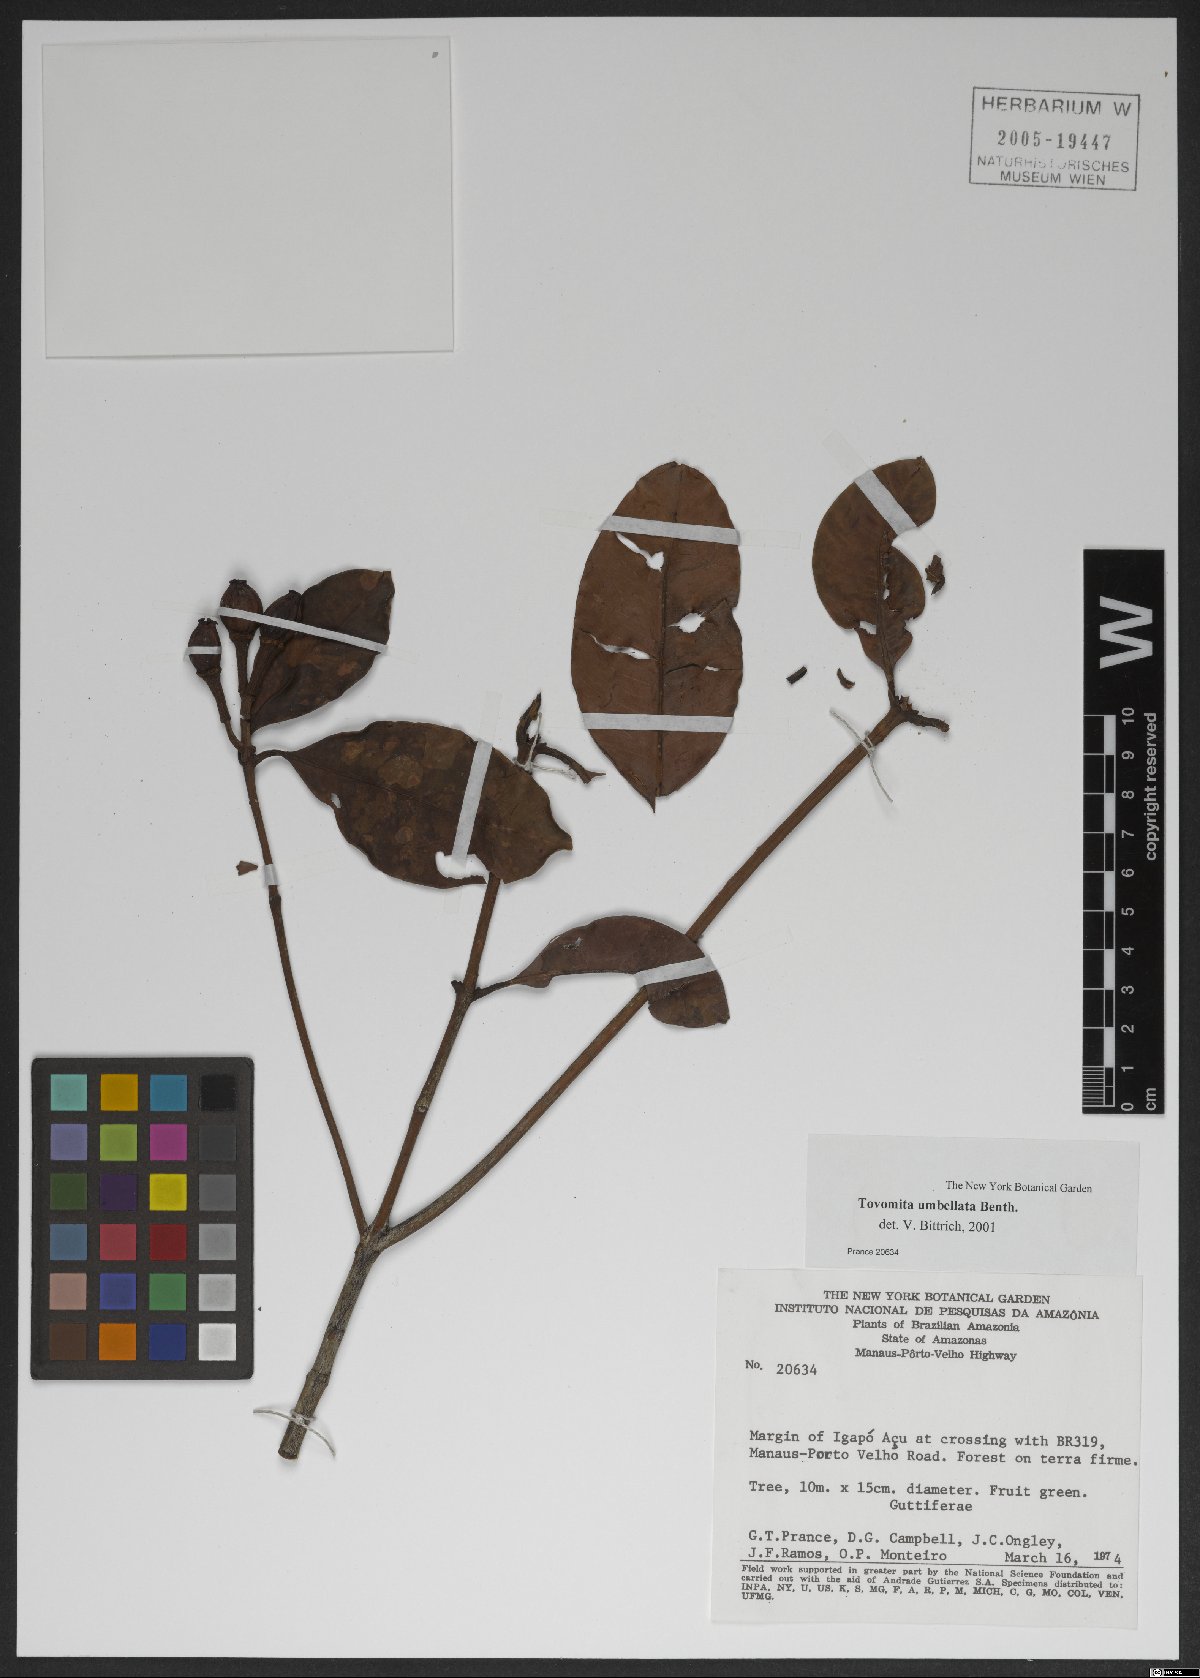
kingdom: Plantae
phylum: Tracheophyta
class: Magnoliopsida
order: Malpighiales
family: Clusiaceae
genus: Tovomita
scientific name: Tovomita umbellata
